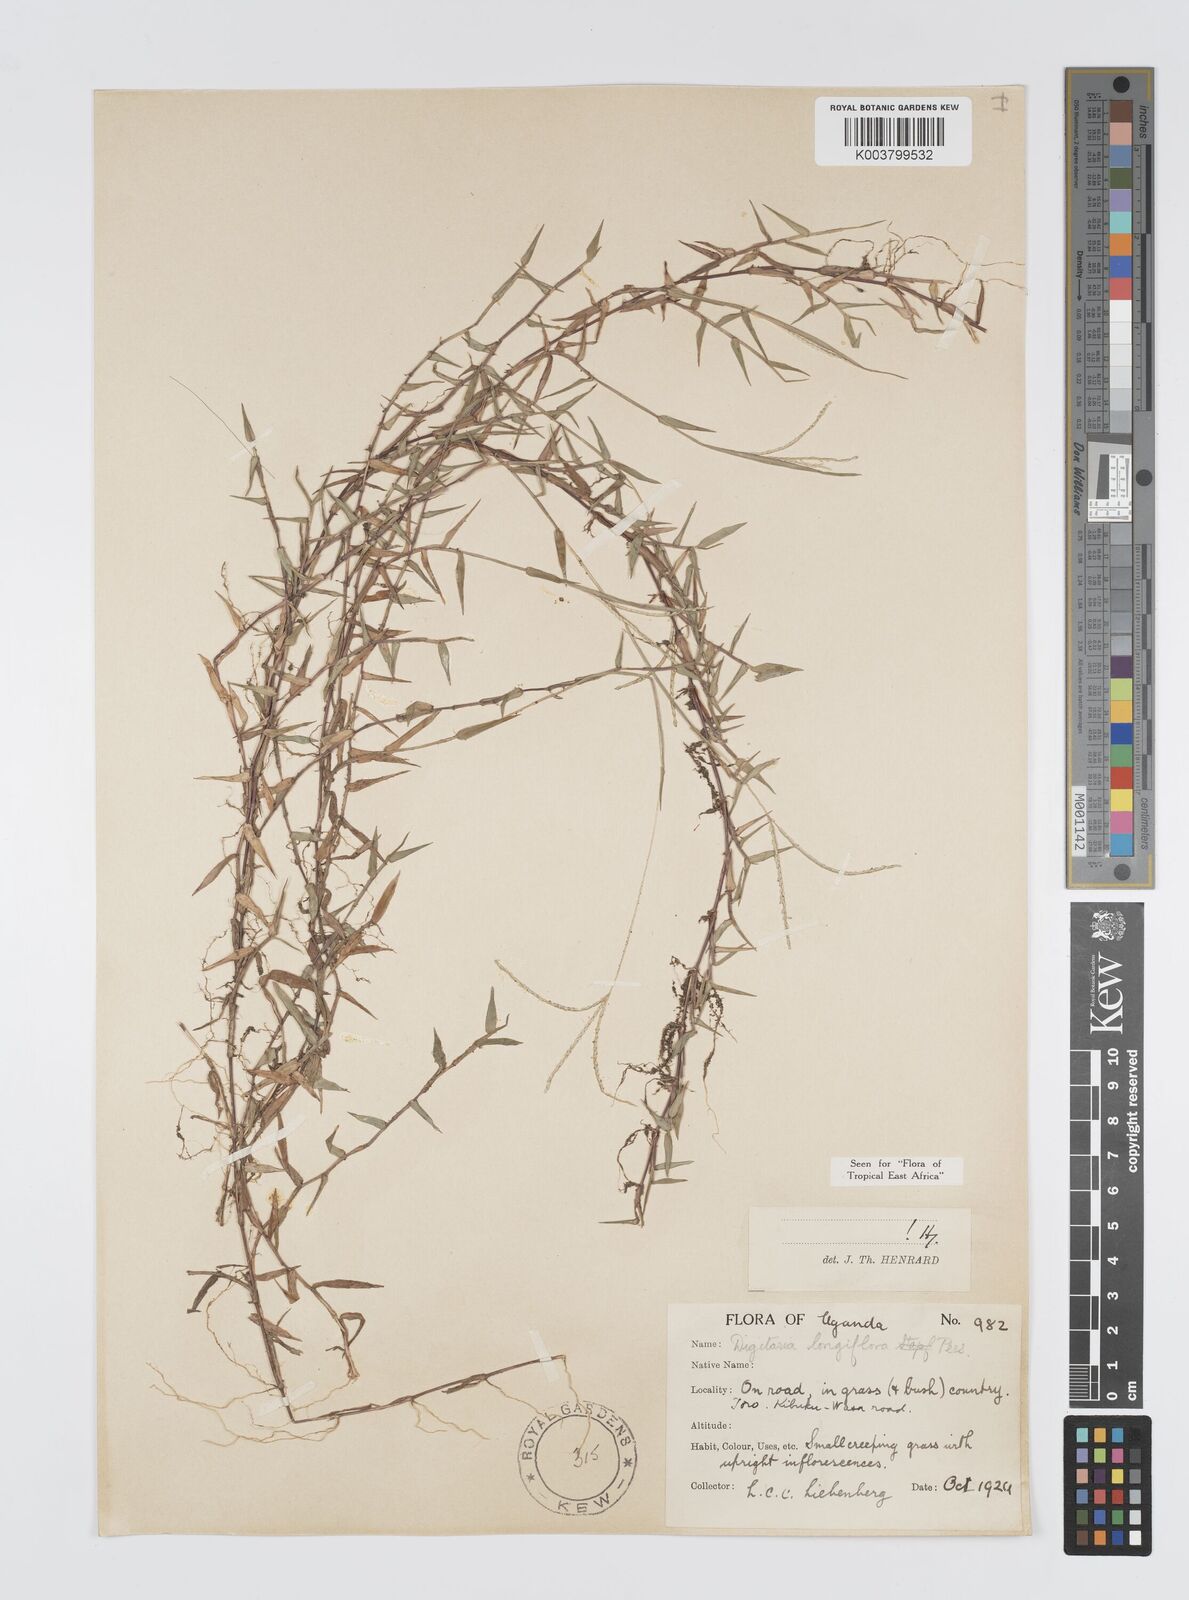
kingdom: Plantae
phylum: Tracheophyta
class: Liliopsida
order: Poales
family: Poaceae
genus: Digitaria
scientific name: Digitaria longiflora
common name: Wire crabgrass
